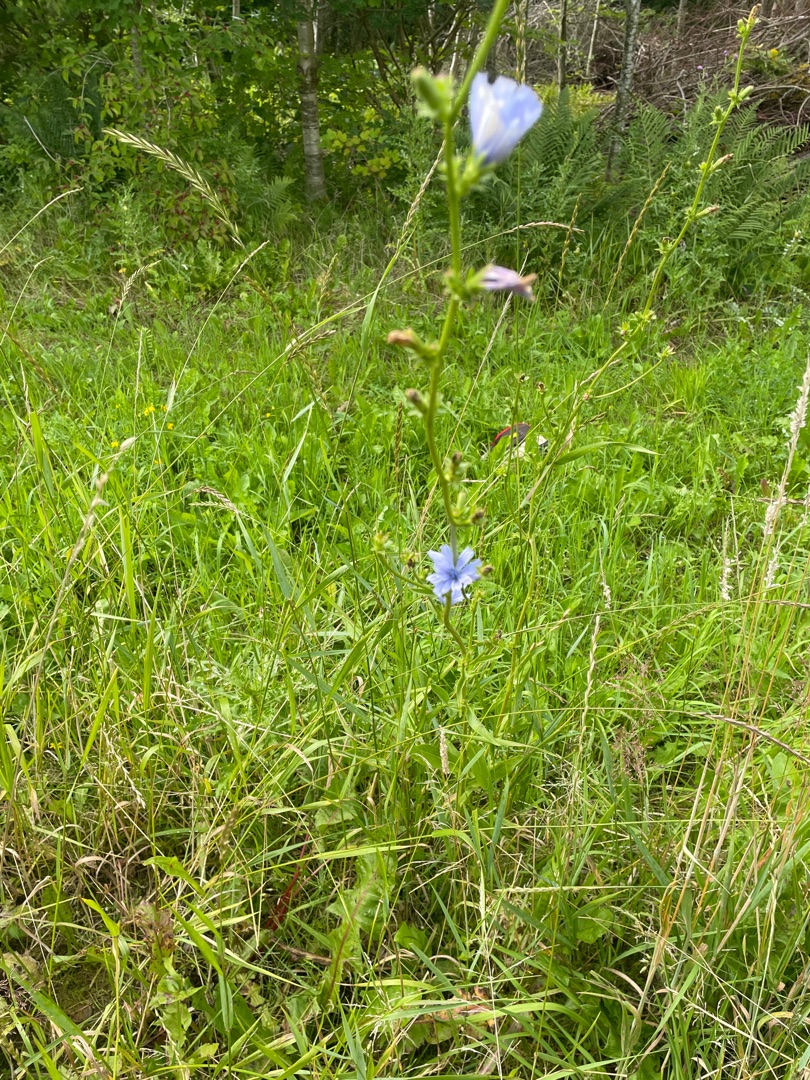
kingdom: Plantae
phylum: Tracheophyta
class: Magnoliopsida
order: Asterales
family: Asteraceae
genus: Cichorium
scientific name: Cichorium intybus
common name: Cikorie
